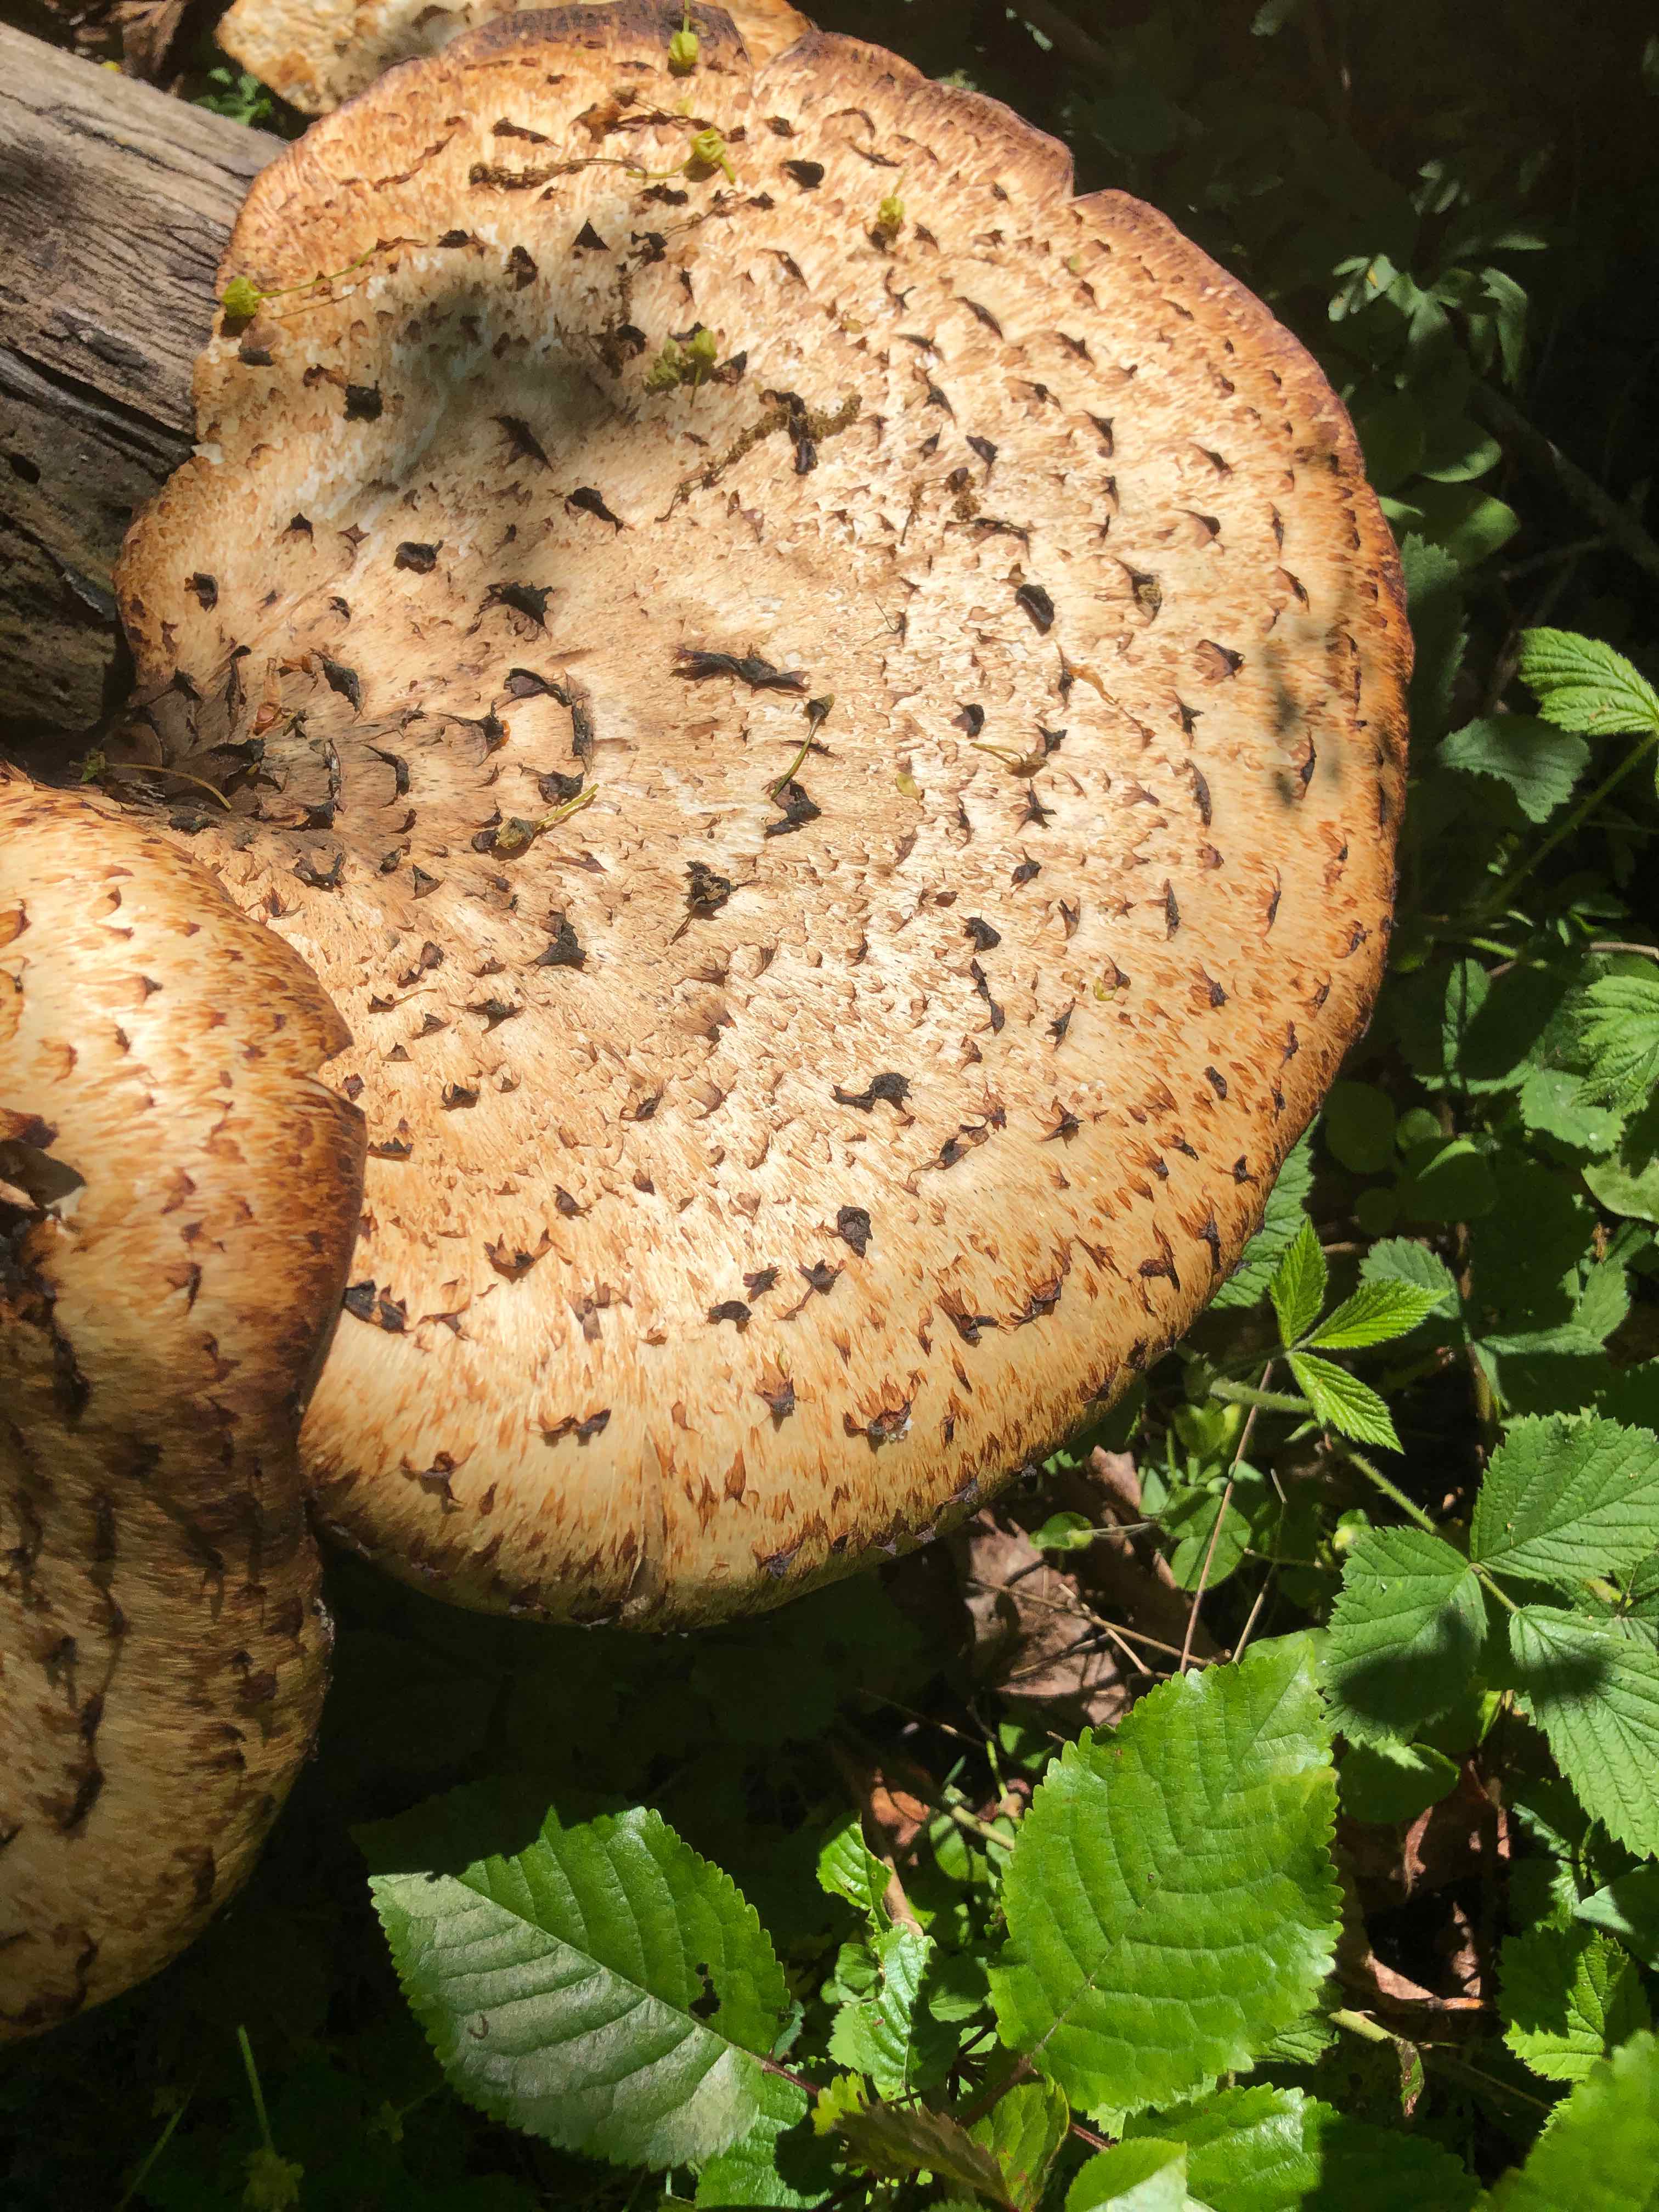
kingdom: Fungi
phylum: Basidiomycota
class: Agaricomycetes
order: Polyporales
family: Polyporaceae
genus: Cerioporus
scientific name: Cerioporus squamosus
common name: skællet stilkporesvamp
